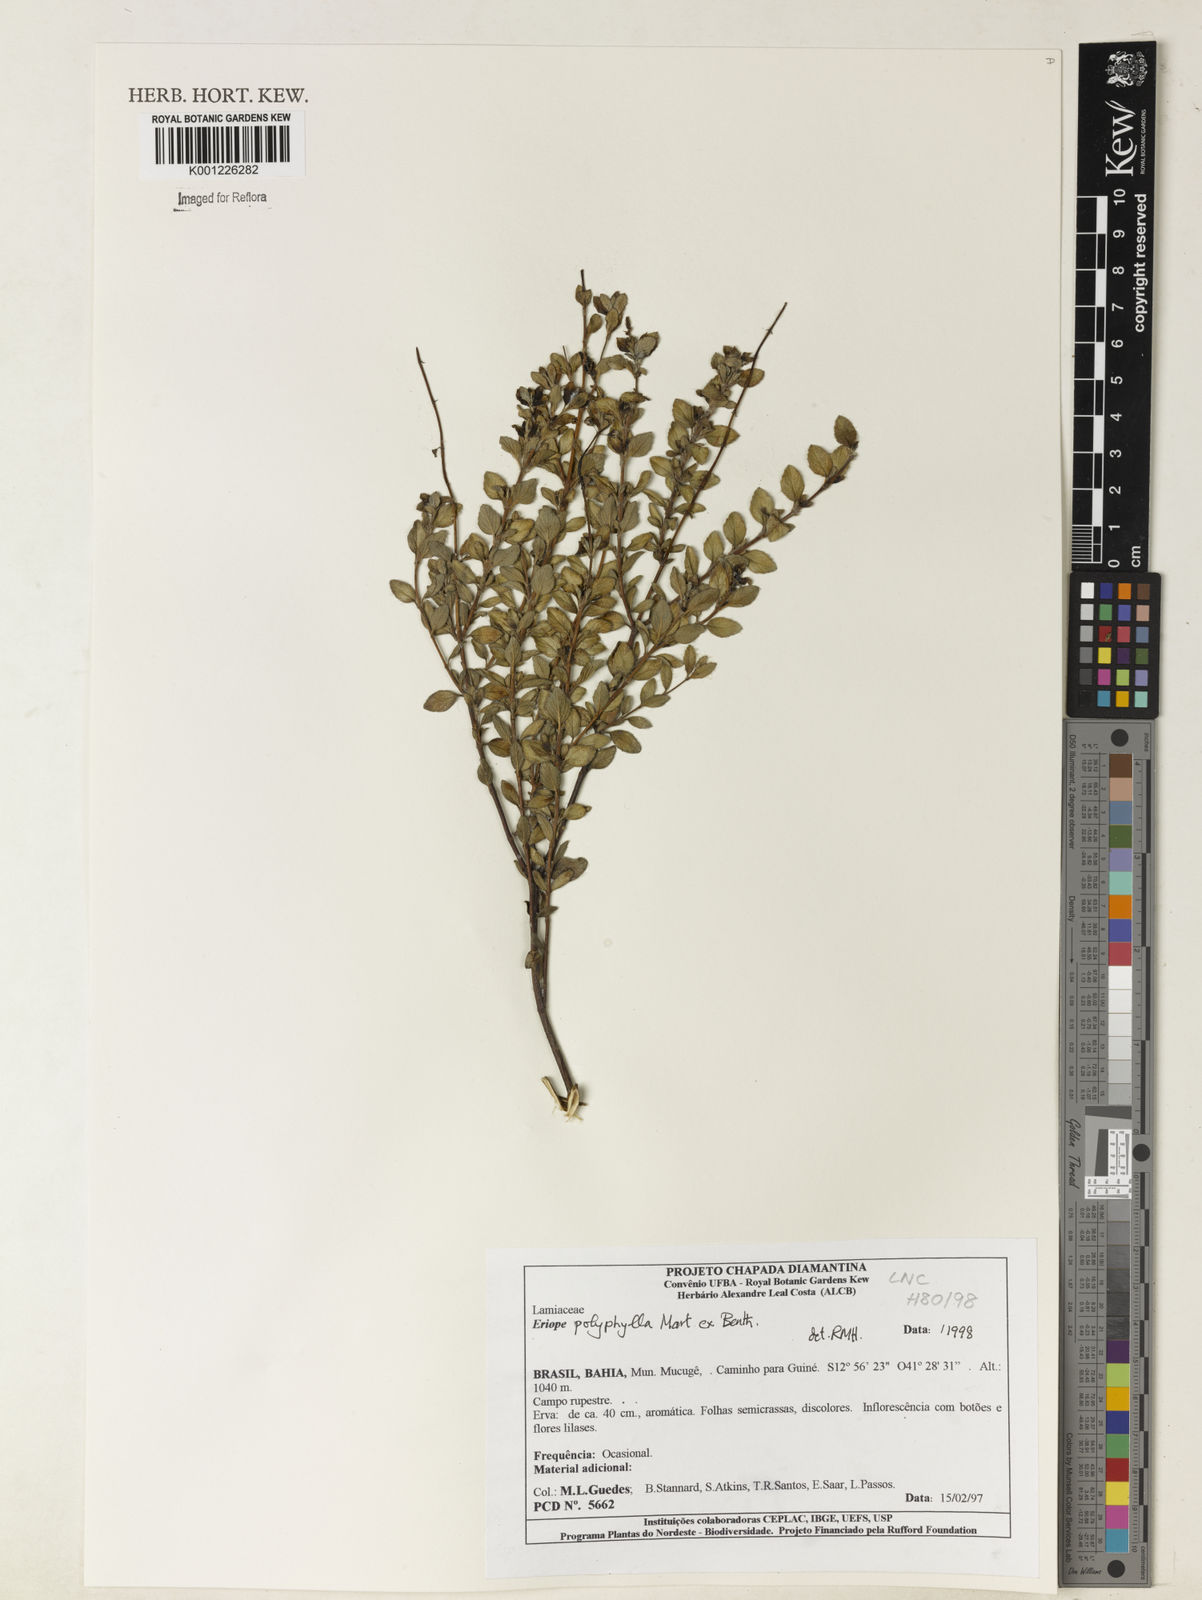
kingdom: Plantae
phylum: Tracheophyta
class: Magnoliopsida
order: Lamiales
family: Lamiaceae
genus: Eriope
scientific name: Eriope polyphylla
